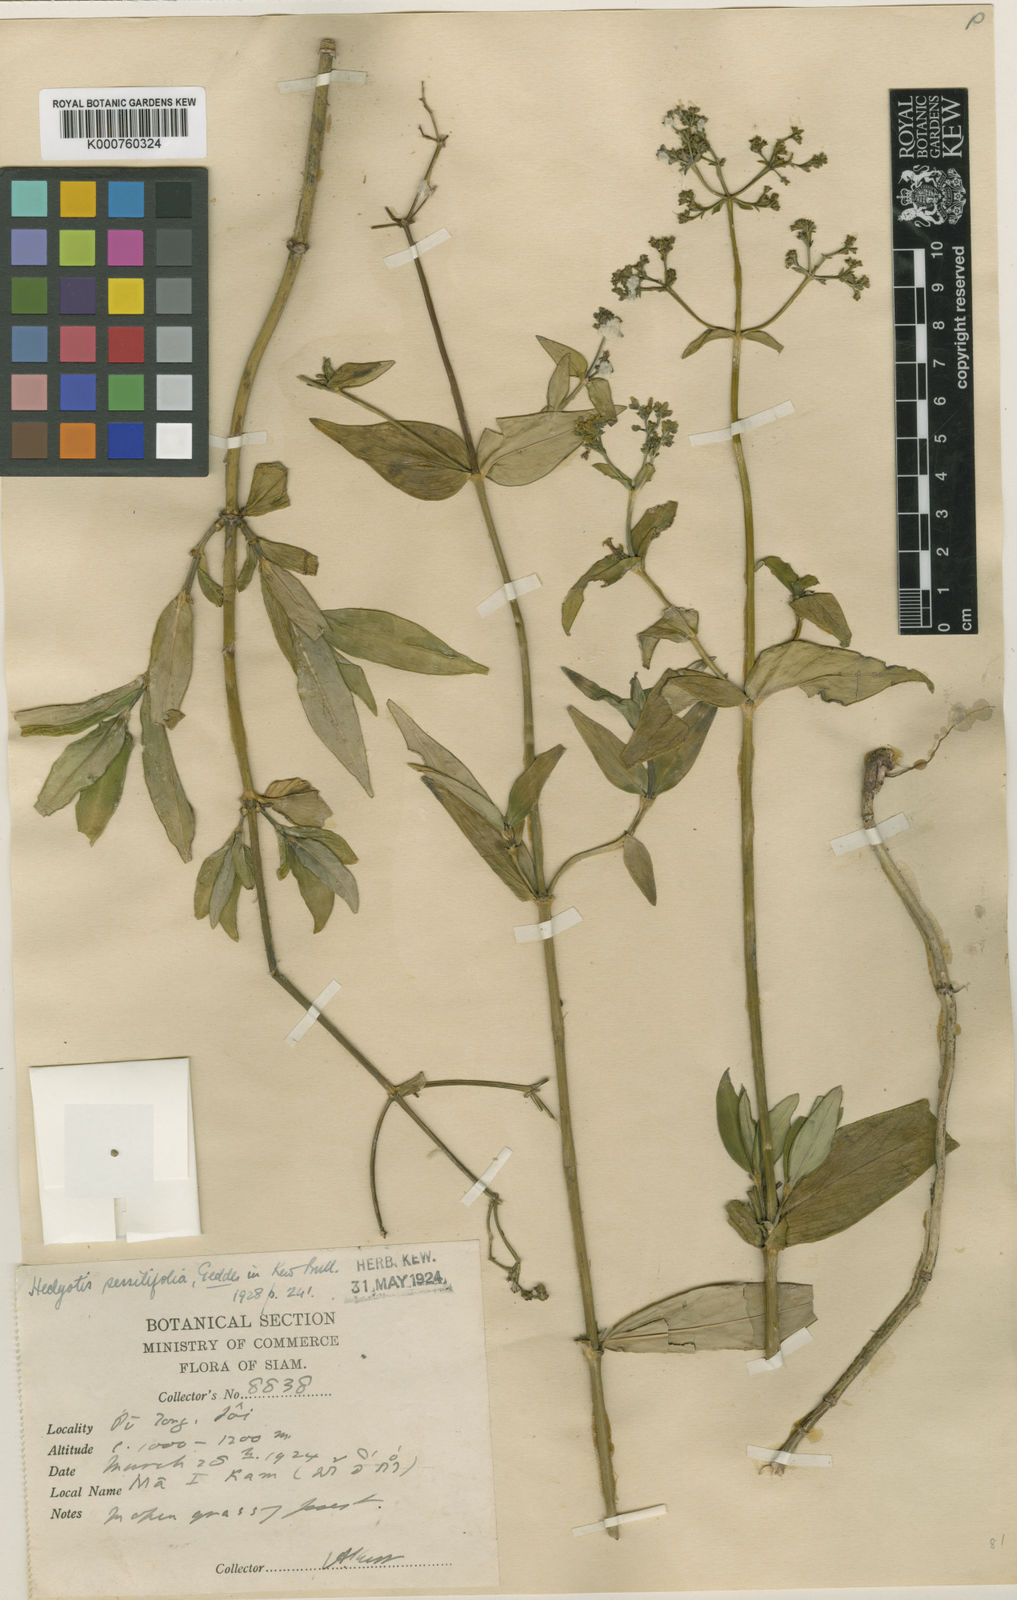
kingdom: Plantae
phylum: Tracheophyta
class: Magnoliopsida
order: Gentianales
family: Rubiaceae
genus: Hedyotis
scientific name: Hedyotis
